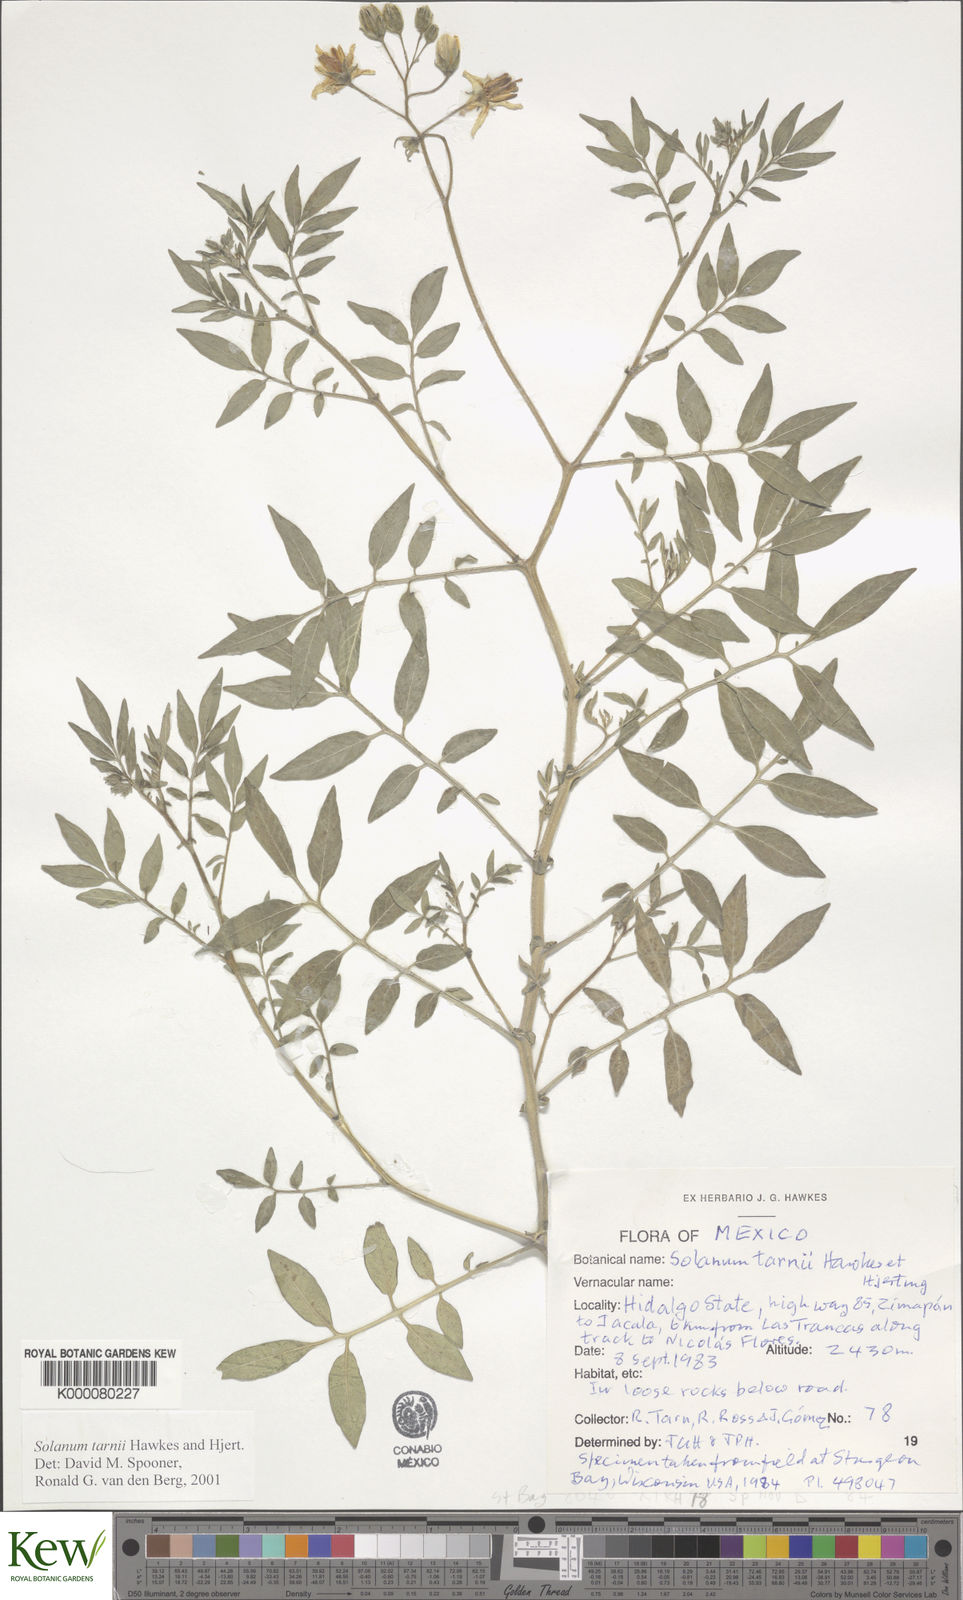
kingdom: Plantae
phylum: Tracheophyta
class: Magnoliopsida
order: Solanales
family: Solanaceae
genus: Solanum
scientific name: Solanum tarnii
